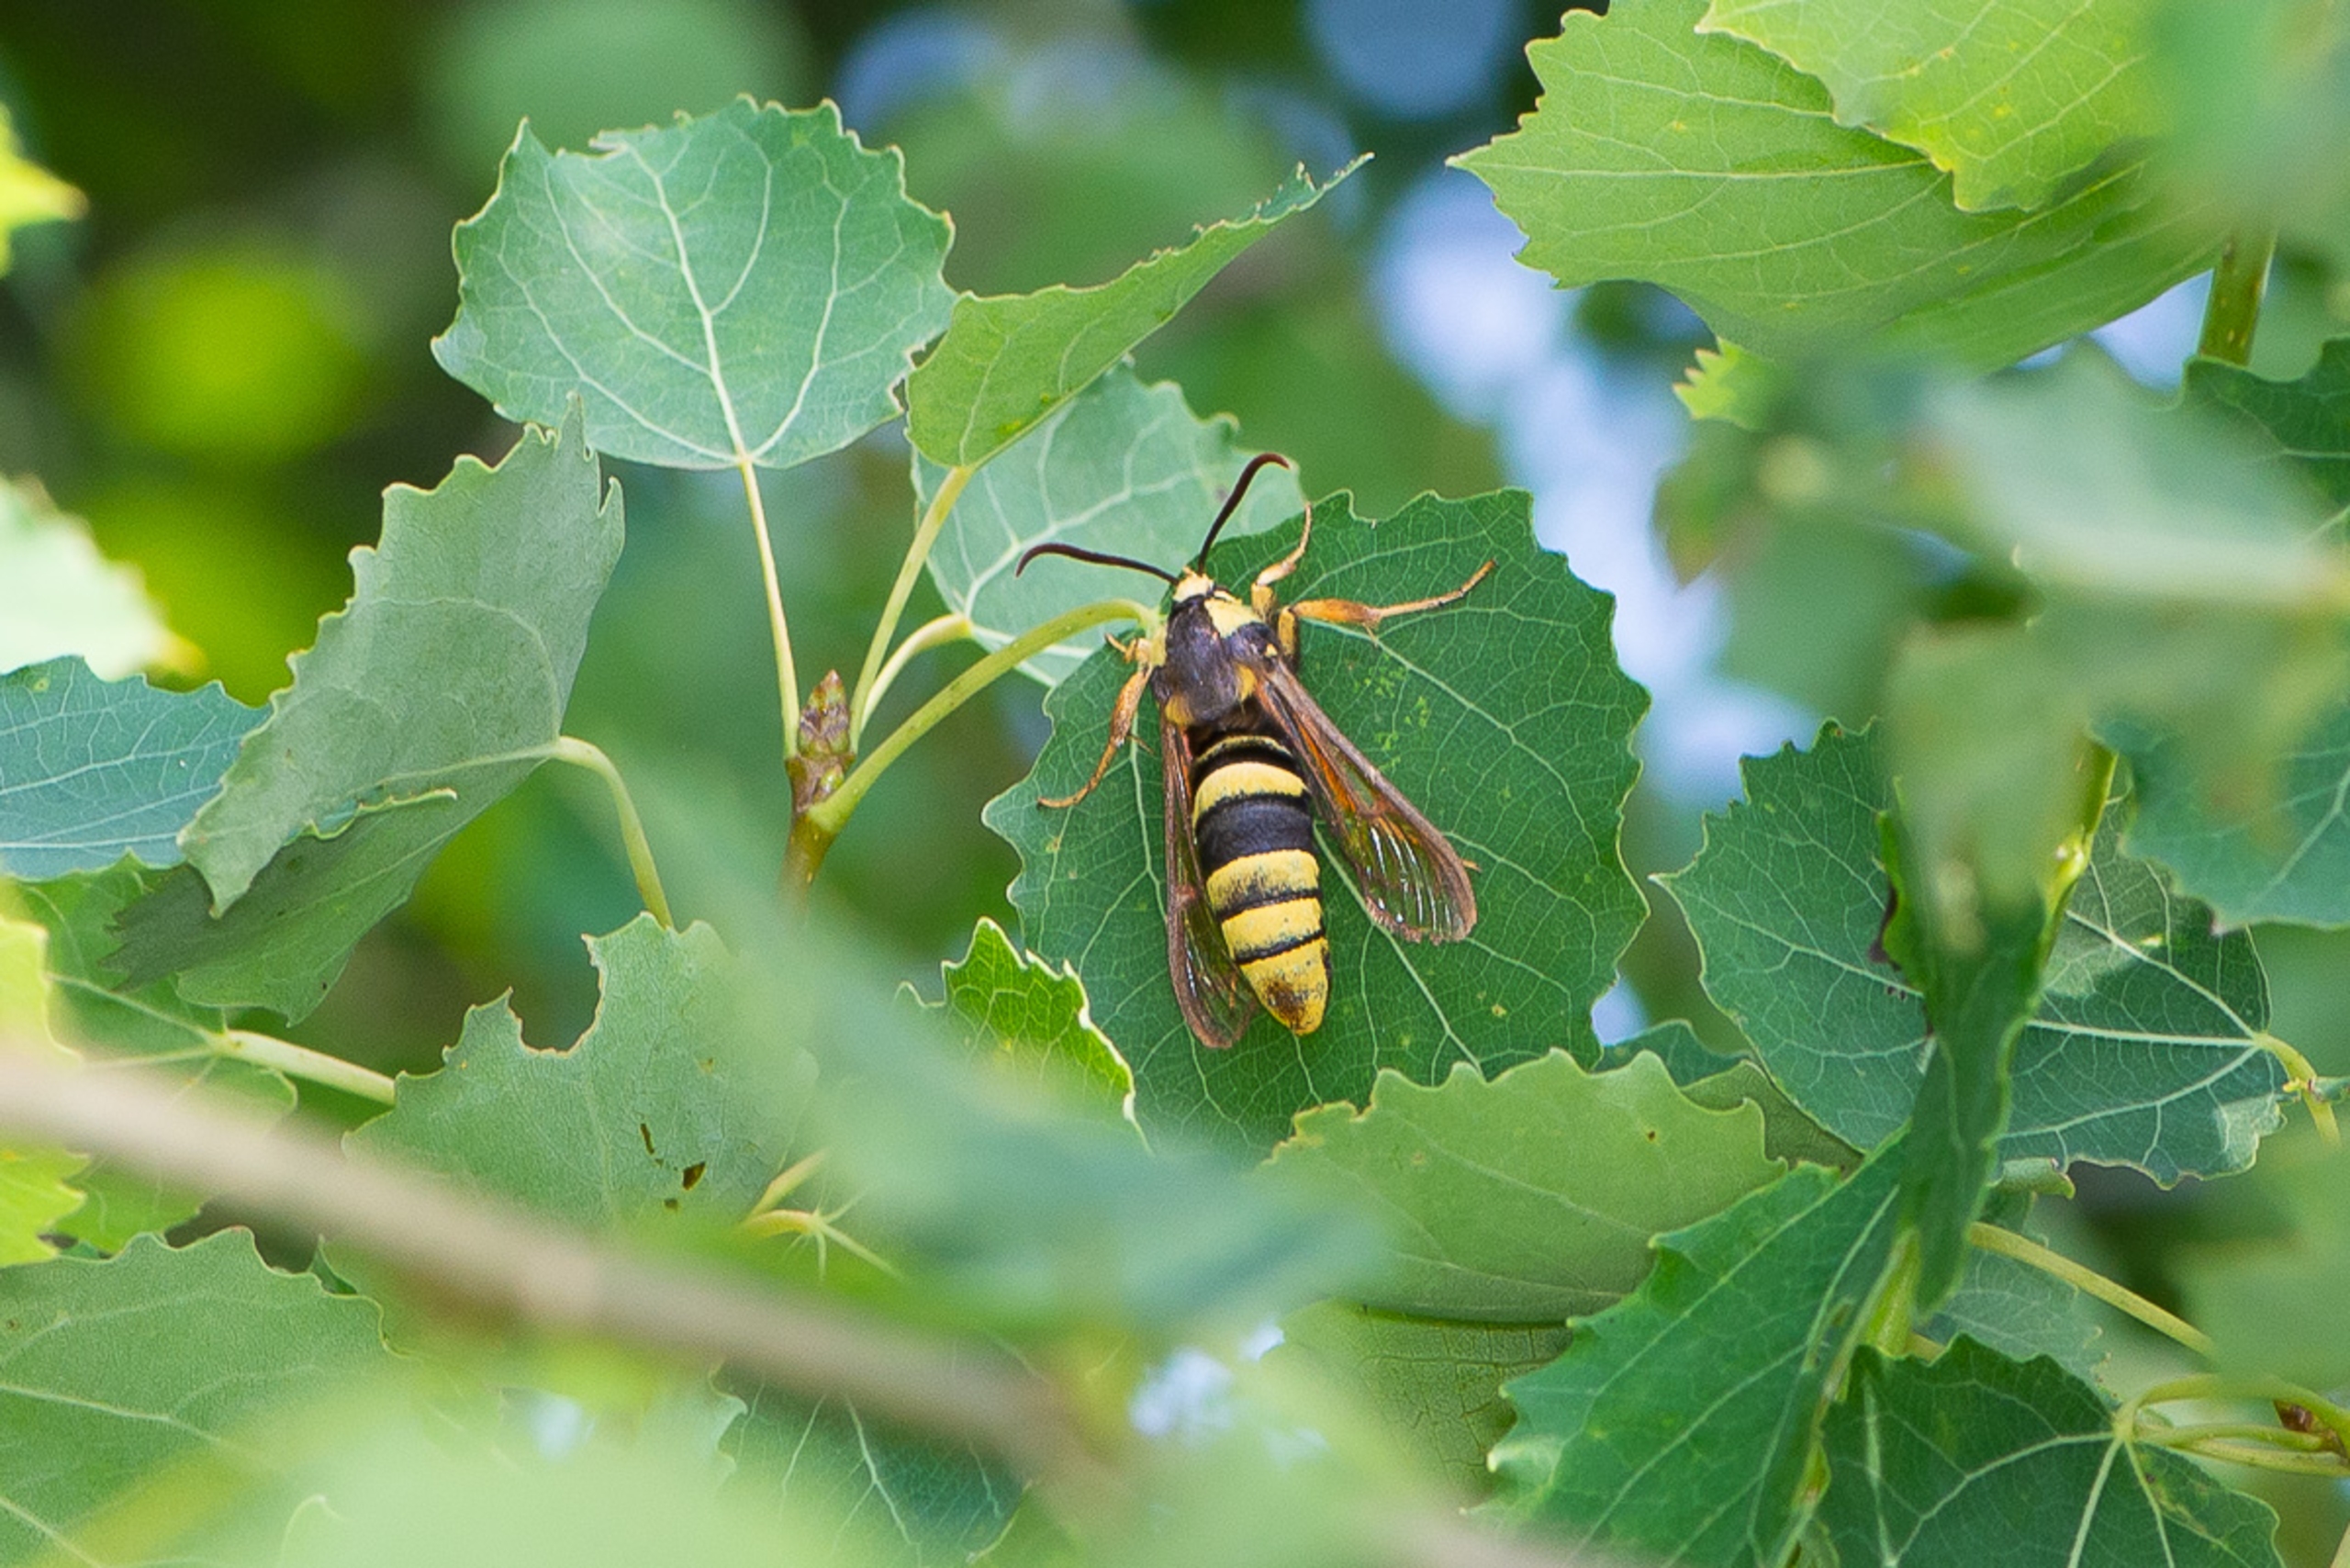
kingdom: Animalia
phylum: Arthropoda
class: Insecta
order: Lepidoptera
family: Sesiidae
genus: Sesia
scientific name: Sesia apiformis
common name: Stor glassværmer
